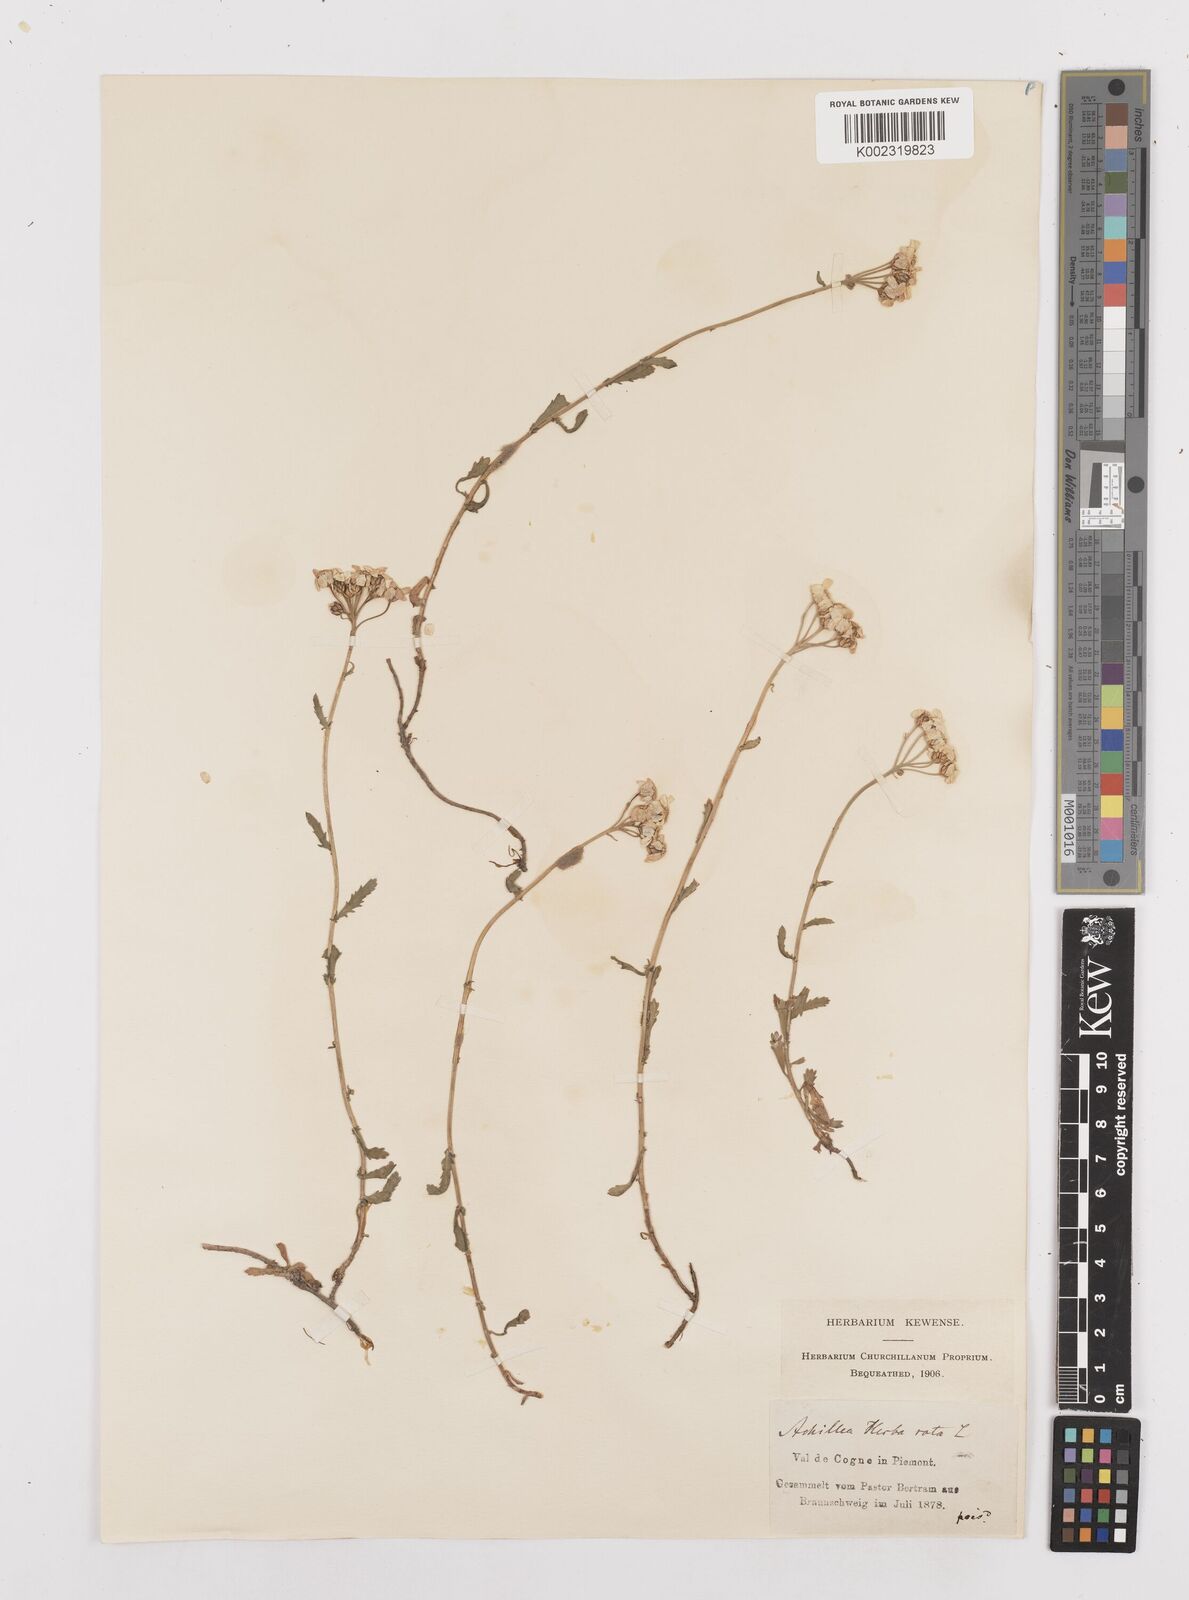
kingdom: Plantae
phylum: Tracheophyta
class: Magnoliopsida
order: Asterales
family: Asteraceae
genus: Achillea
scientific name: Achillea erba-rotta
